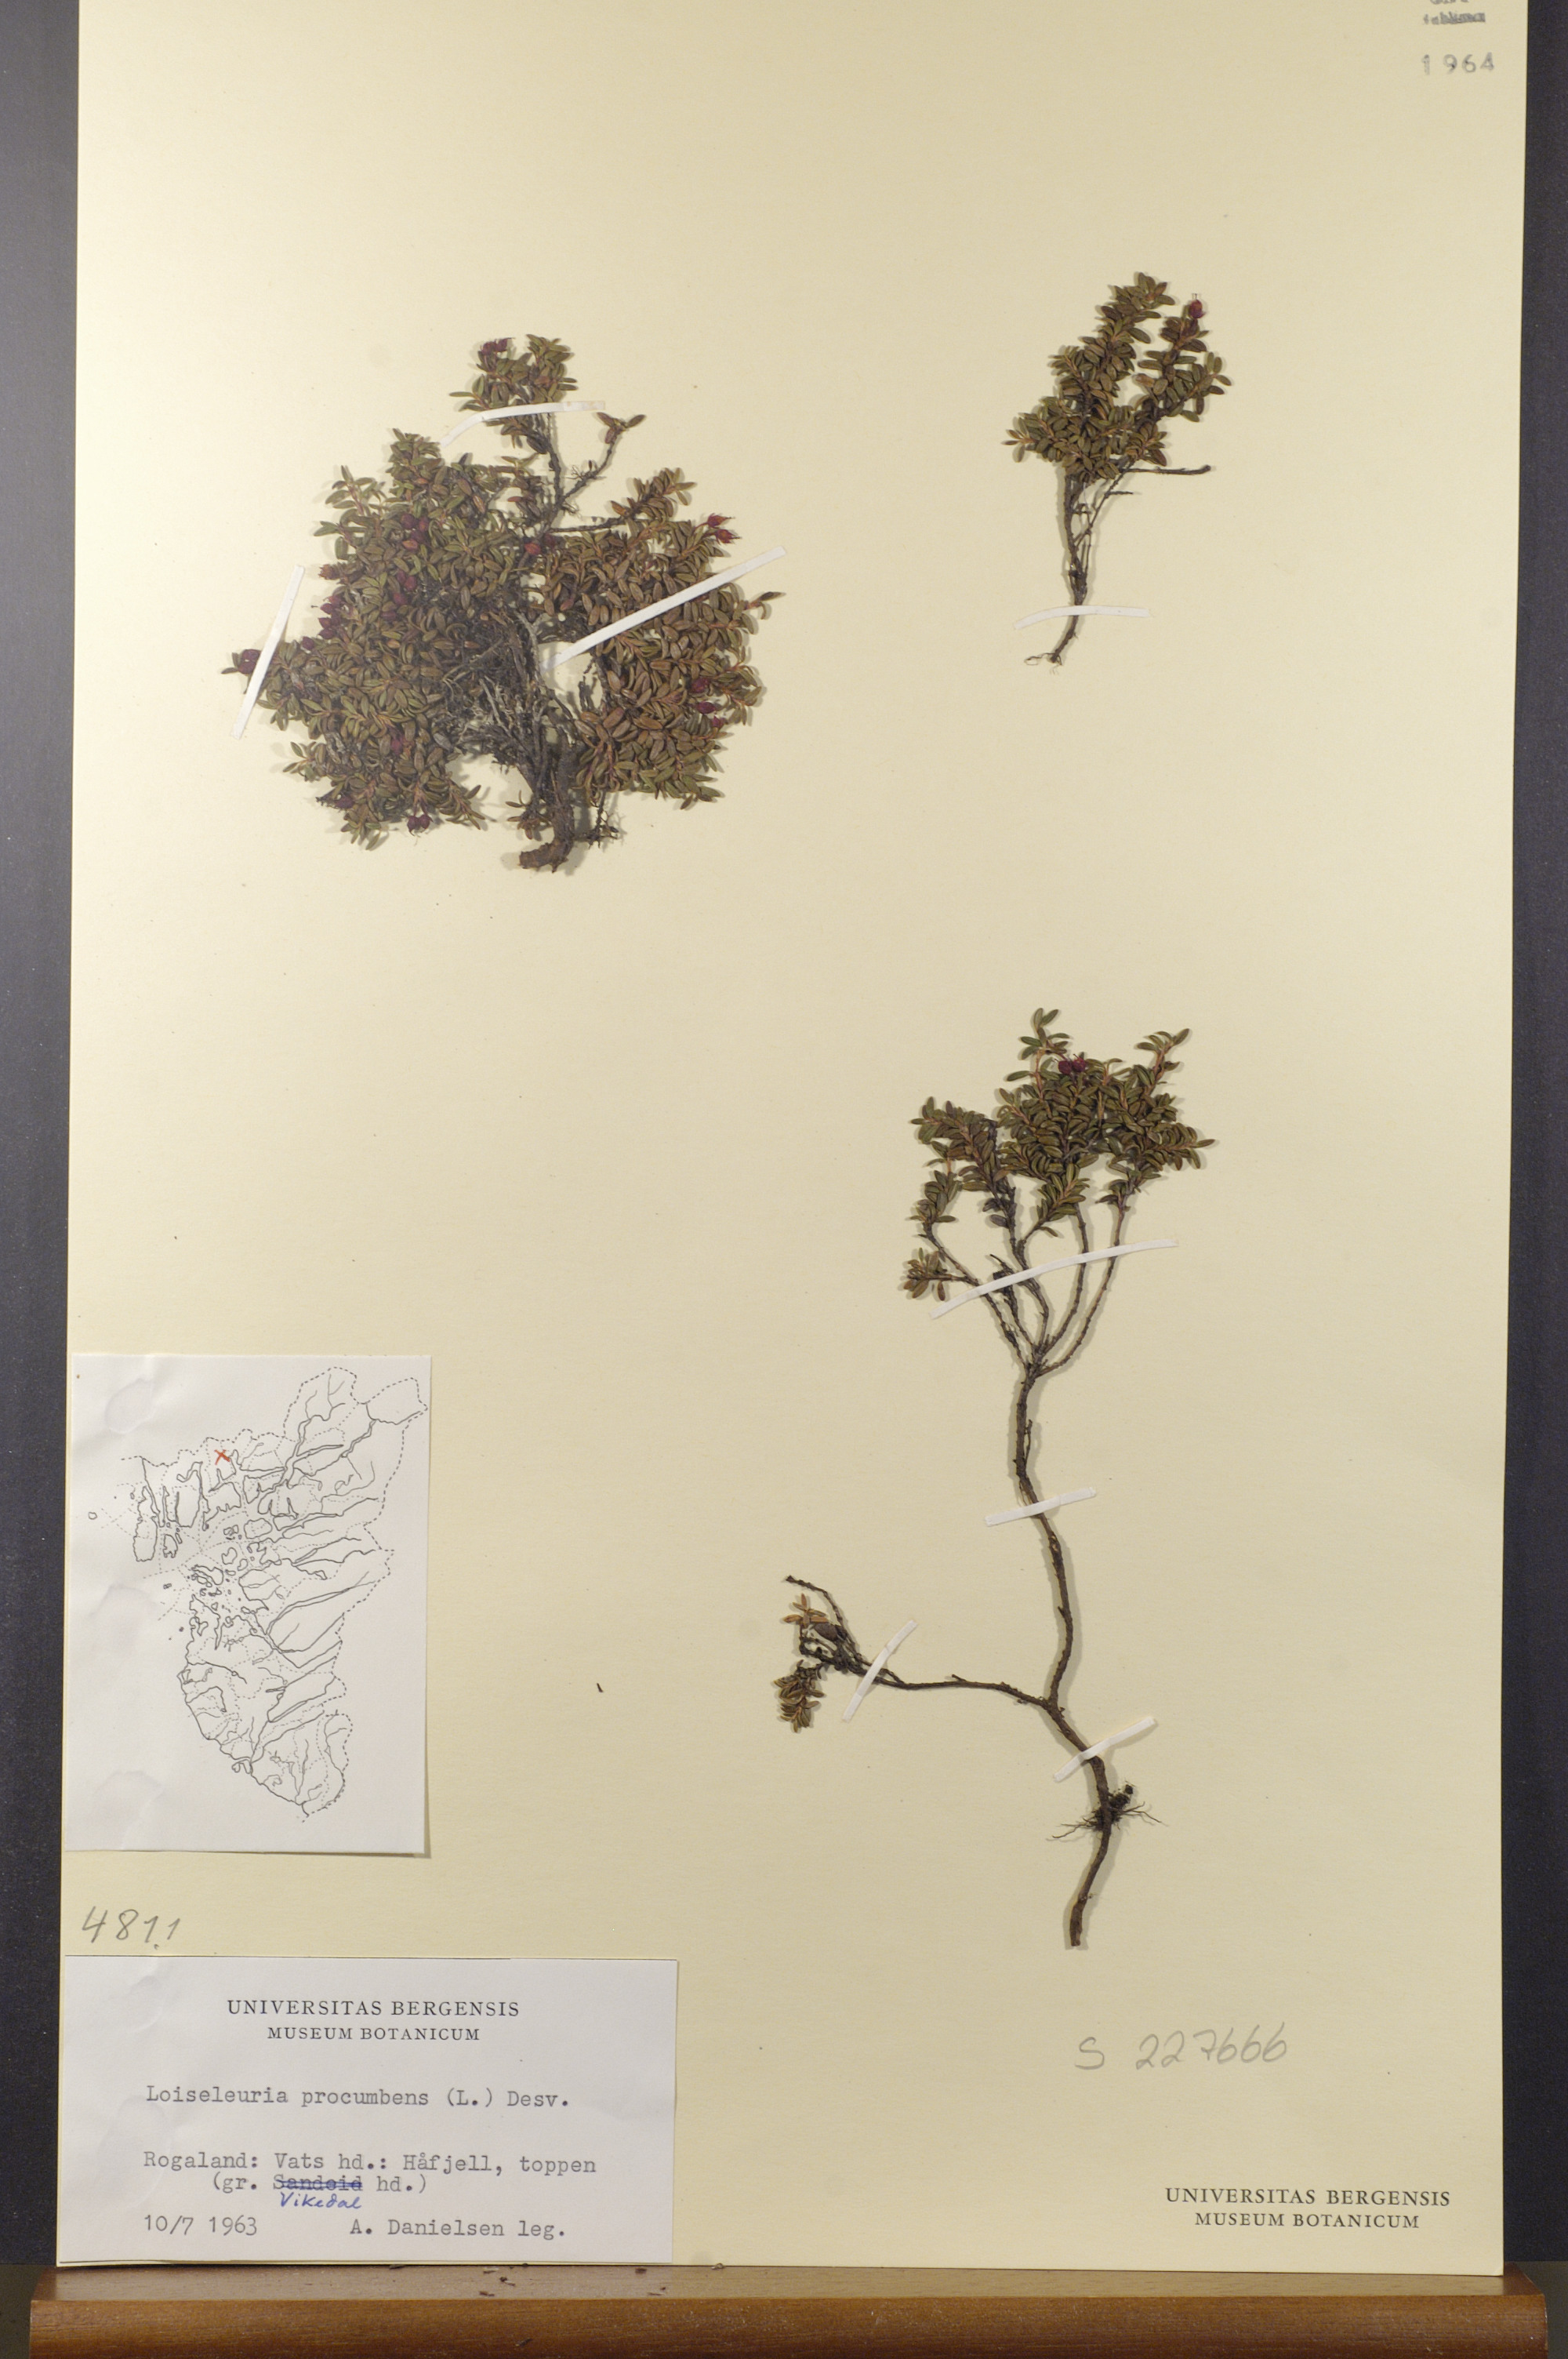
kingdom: Plantae
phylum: Tracheophyta
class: Magnoliopsida
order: Ericales
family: Ericaceae
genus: Kalmia
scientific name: Kalmia procumbens
